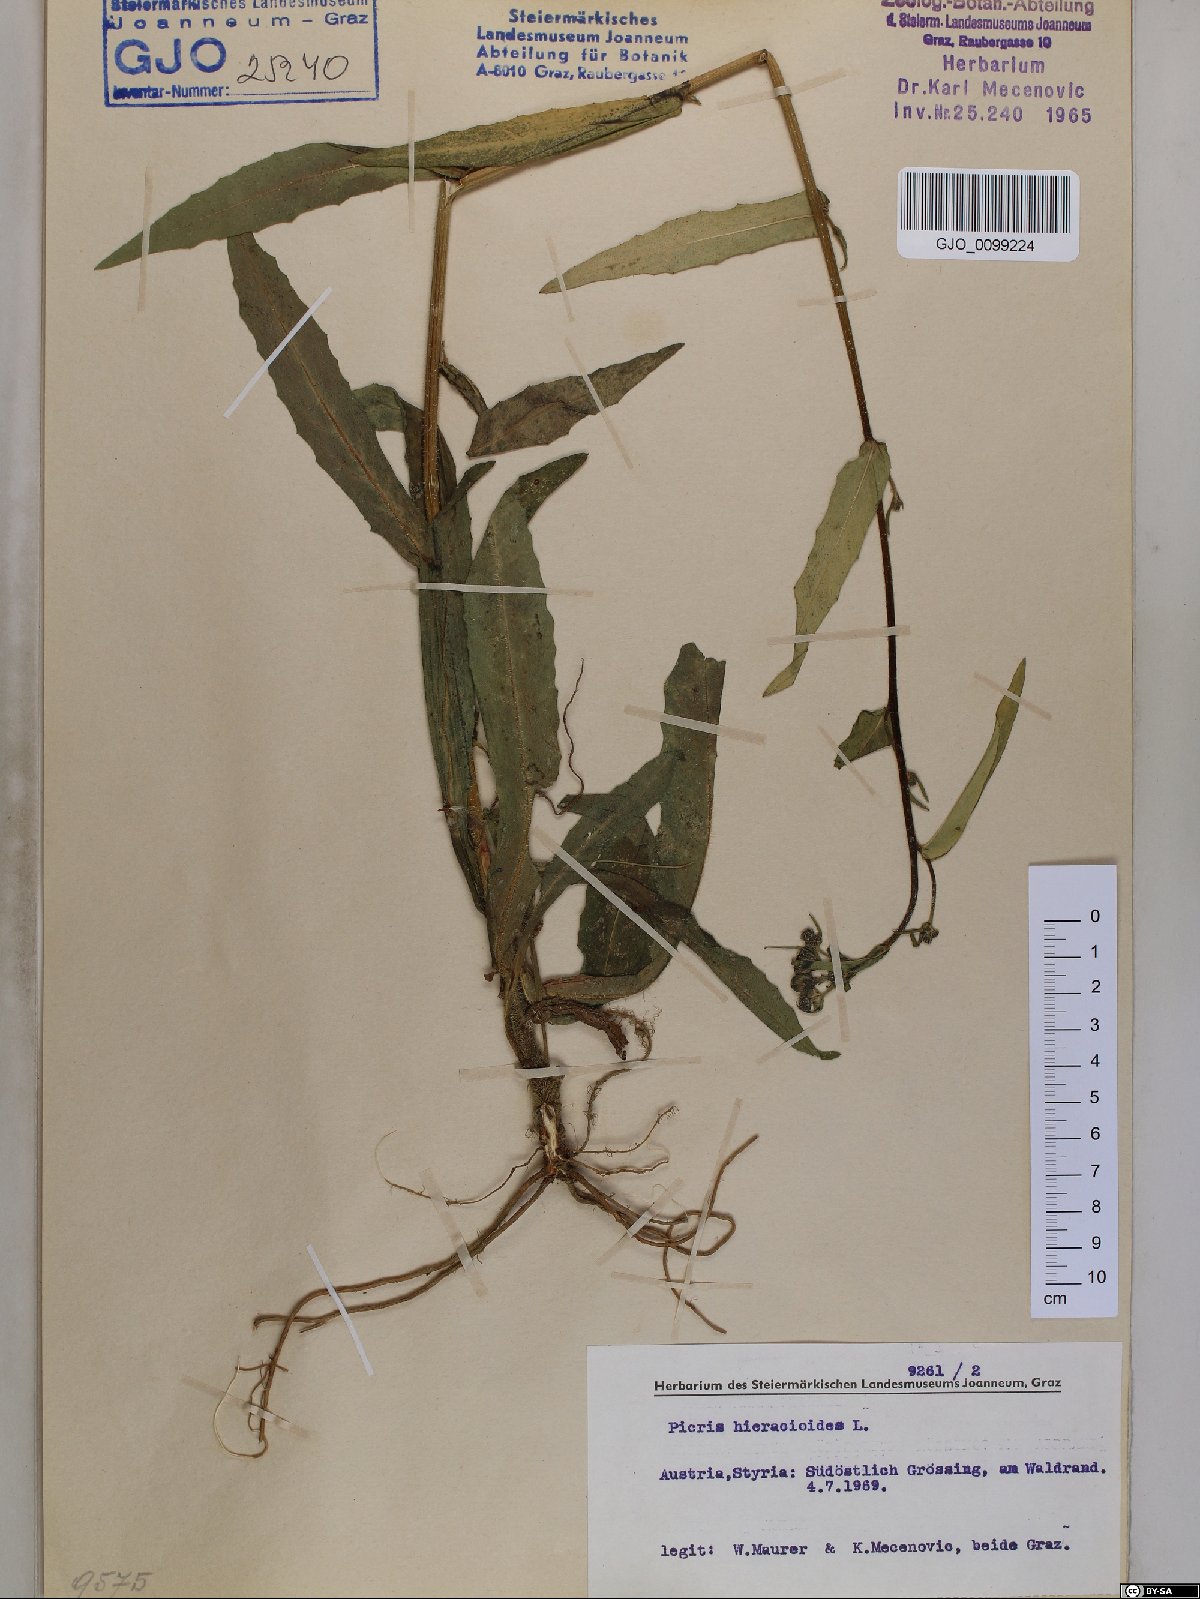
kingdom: Plantae
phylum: Tracheophyta
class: Magnoliopsida
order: Asterales
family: Asteraceae
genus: Picris
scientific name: Picris hieracioides
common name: Hawkweed oxtongue
